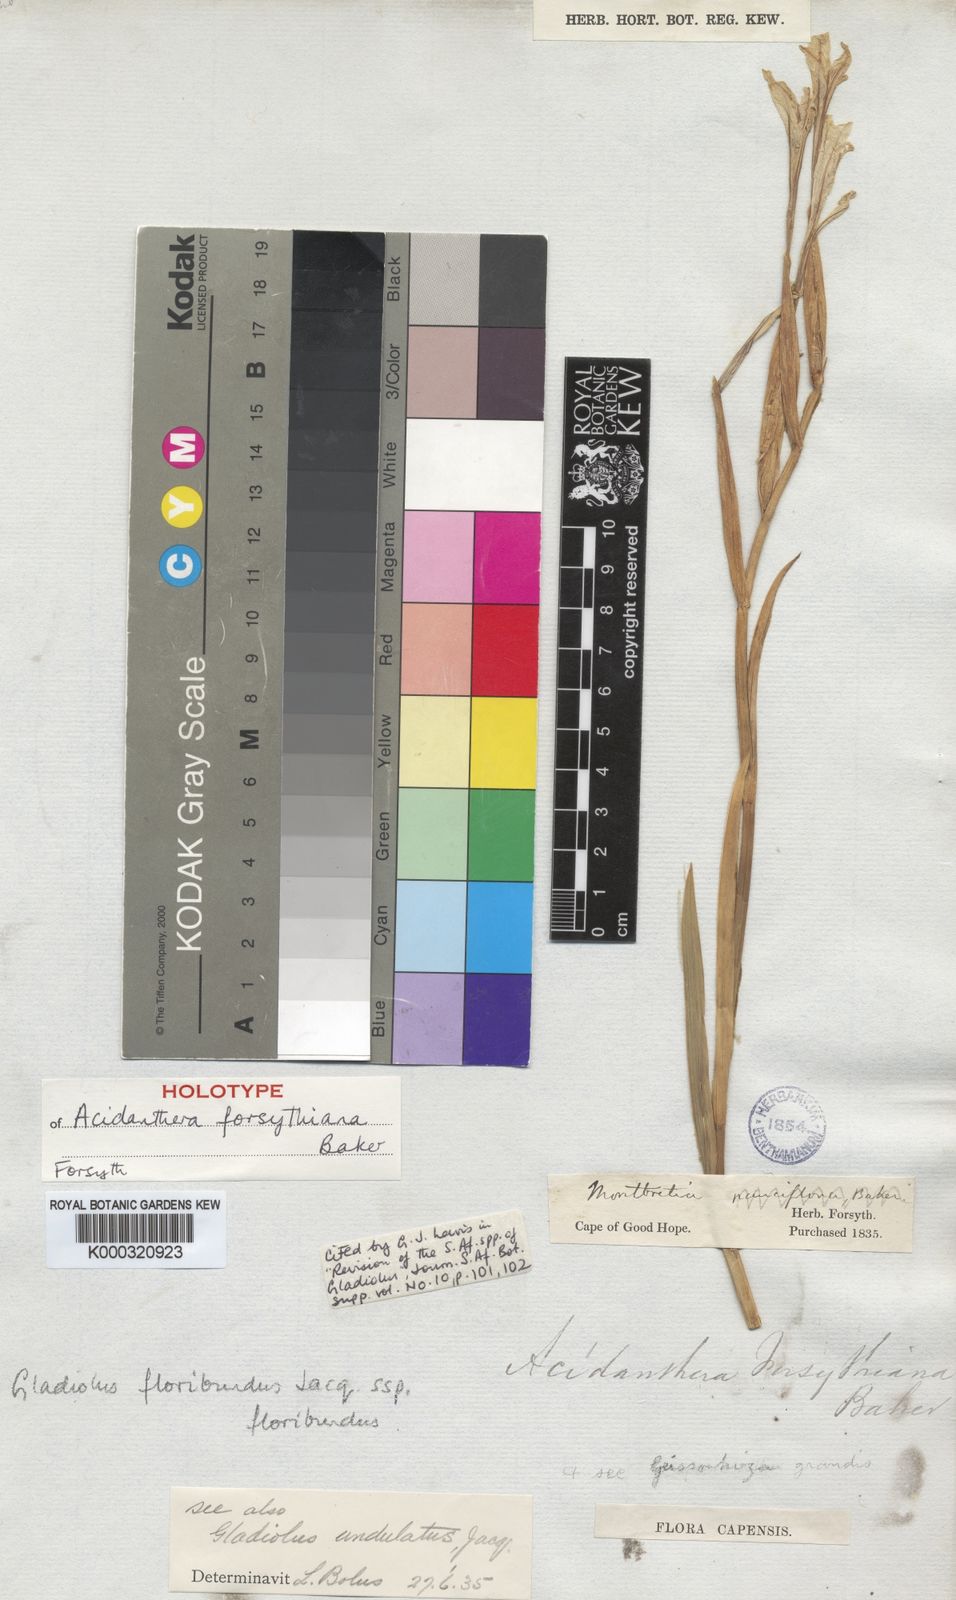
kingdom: Plantae
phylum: Tracheophyta
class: Liliopsida
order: Asparagales
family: Iridaceae
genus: Gladiolus
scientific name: Gladiolus floribundus
